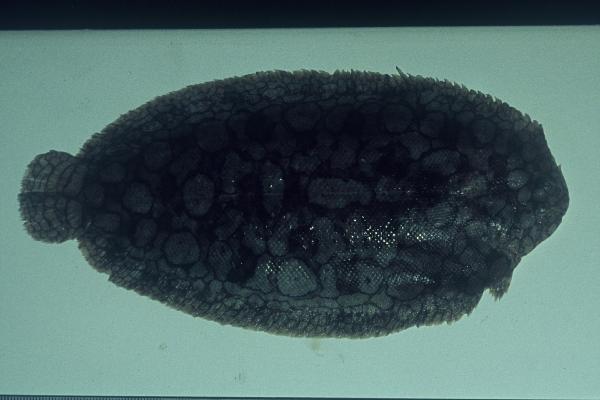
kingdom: Animalia
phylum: Chordata
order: Pleuronectiformes
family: Soleidae
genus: Pardachirus
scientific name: Pardachirus morrowi
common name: Persian carpet sole
